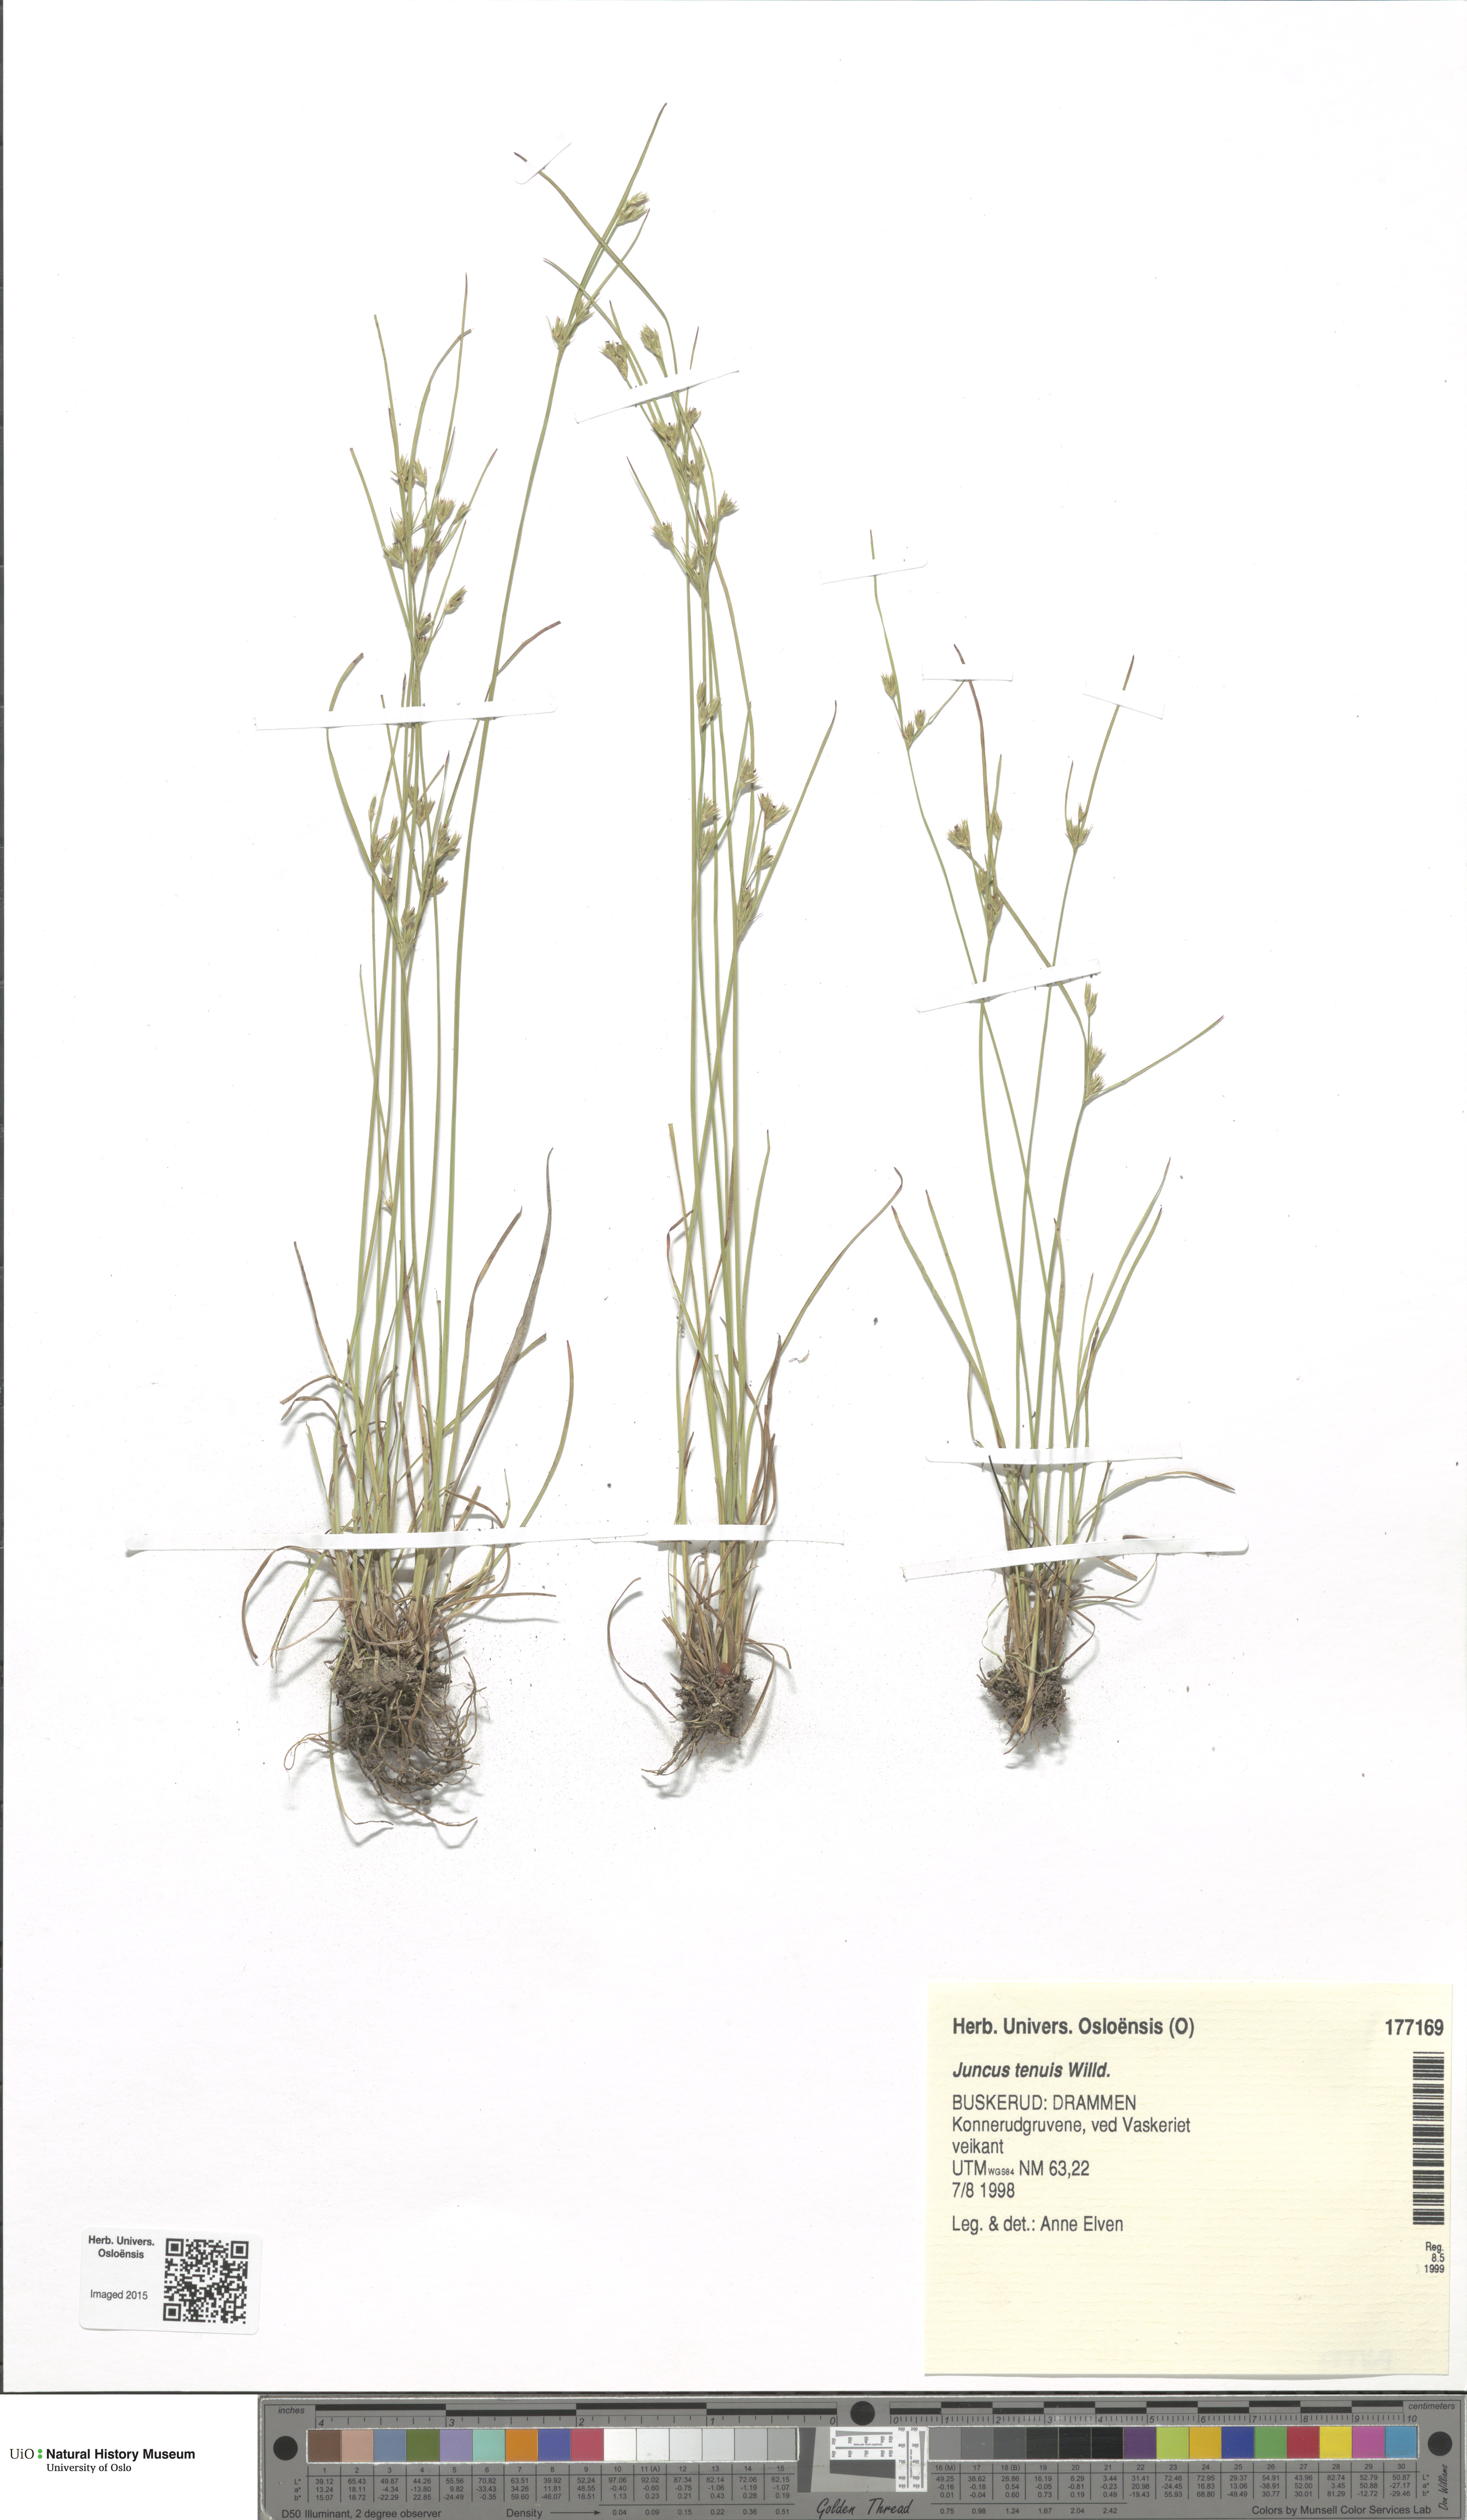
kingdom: Plantae
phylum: Tracheophyta
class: Liliopsida
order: Poales
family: Juncaceae
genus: Juncus
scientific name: Juncus tenuis
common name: Slender rush
